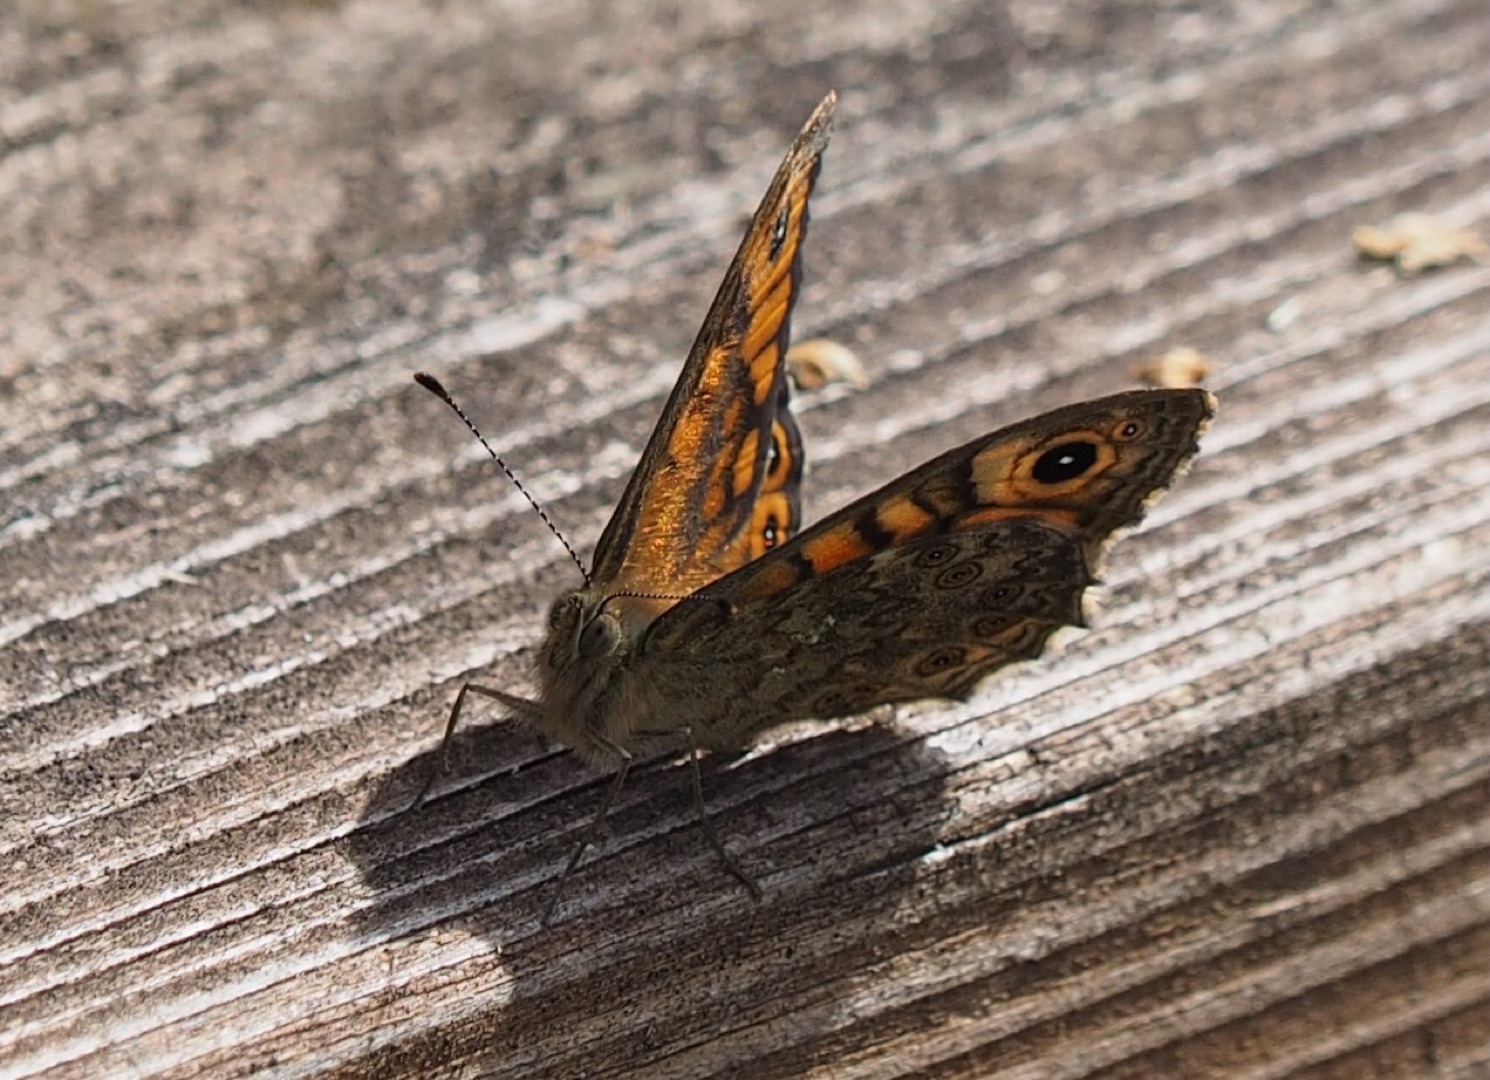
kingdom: Animalia
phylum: Arthropoda
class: Insecta
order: Lepidoptera
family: Nymphalidae
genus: Pararge
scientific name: Pararge Lasiommata megera
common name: Vejrandøje
